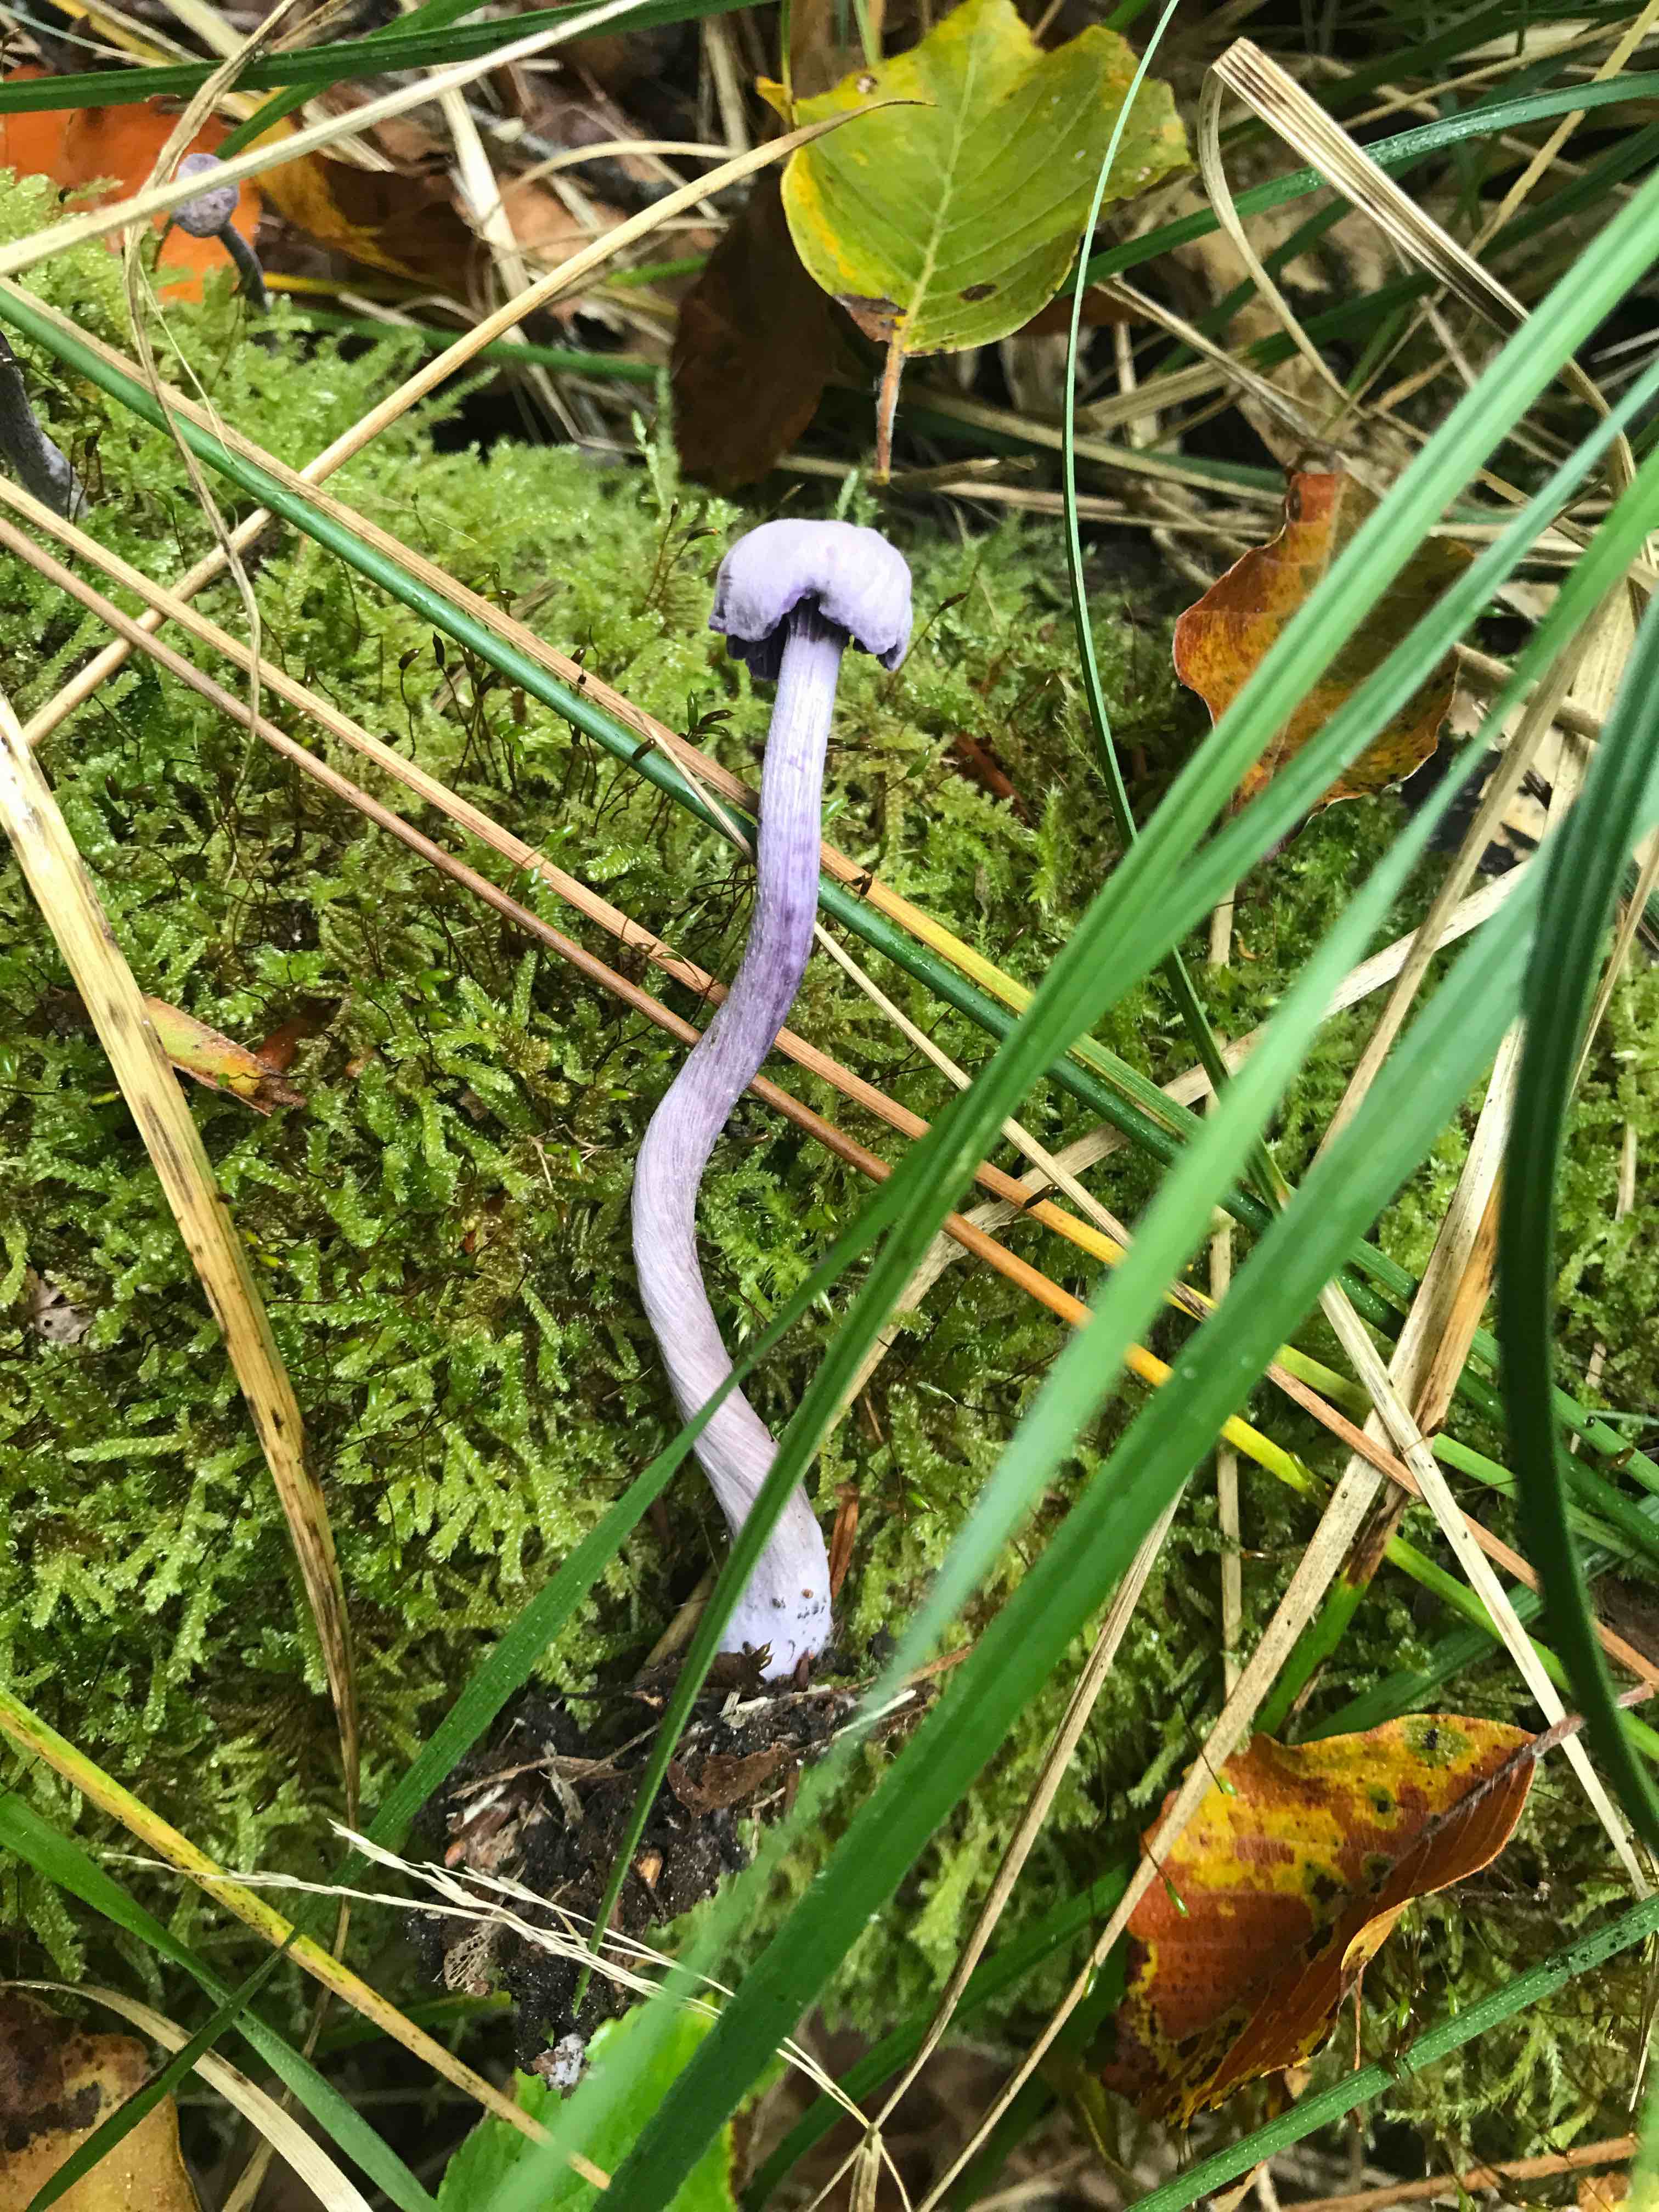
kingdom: Fungi
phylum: Basidiomycota
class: Agaricomycetes
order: Agaricales
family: Hydnangiaceae
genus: Laccaria
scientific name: Laccaria amethystina
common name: violet ametysthat
